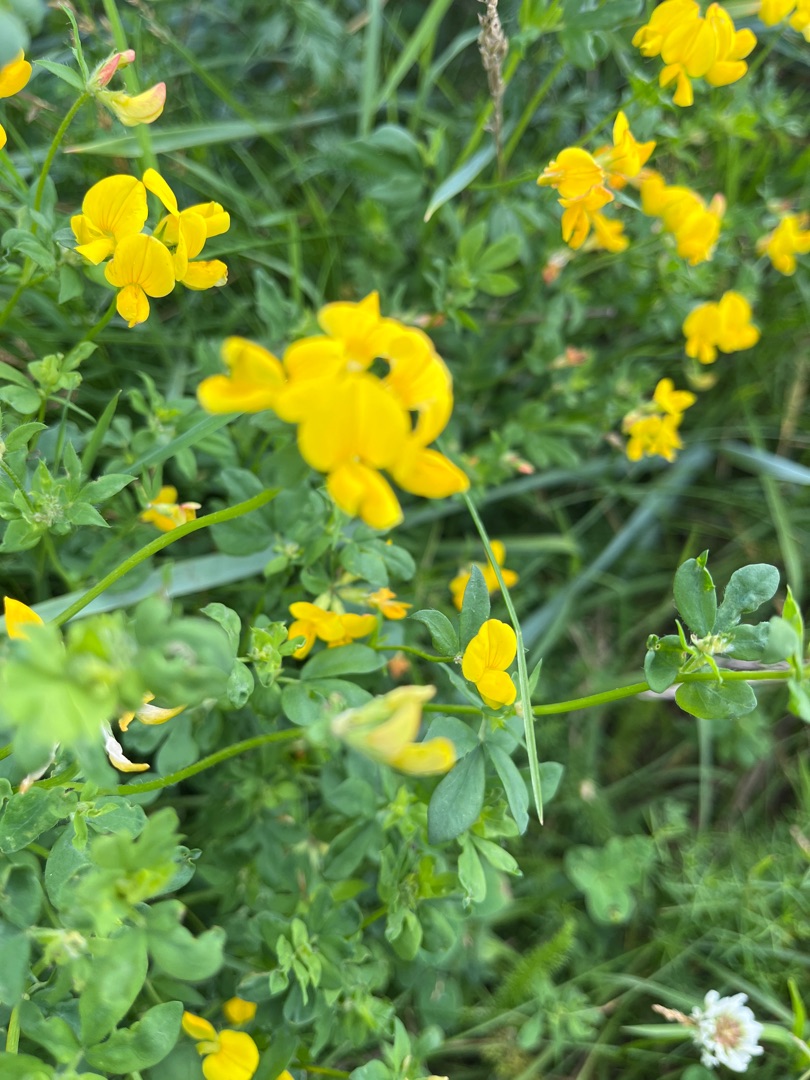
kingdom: Plantae
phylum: Tracheophyta
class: Magnoliopsida
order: Fabales
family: Fabaceae
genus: Lotus
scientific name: Lotus corniculatus
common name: Almindelig kællingetand
